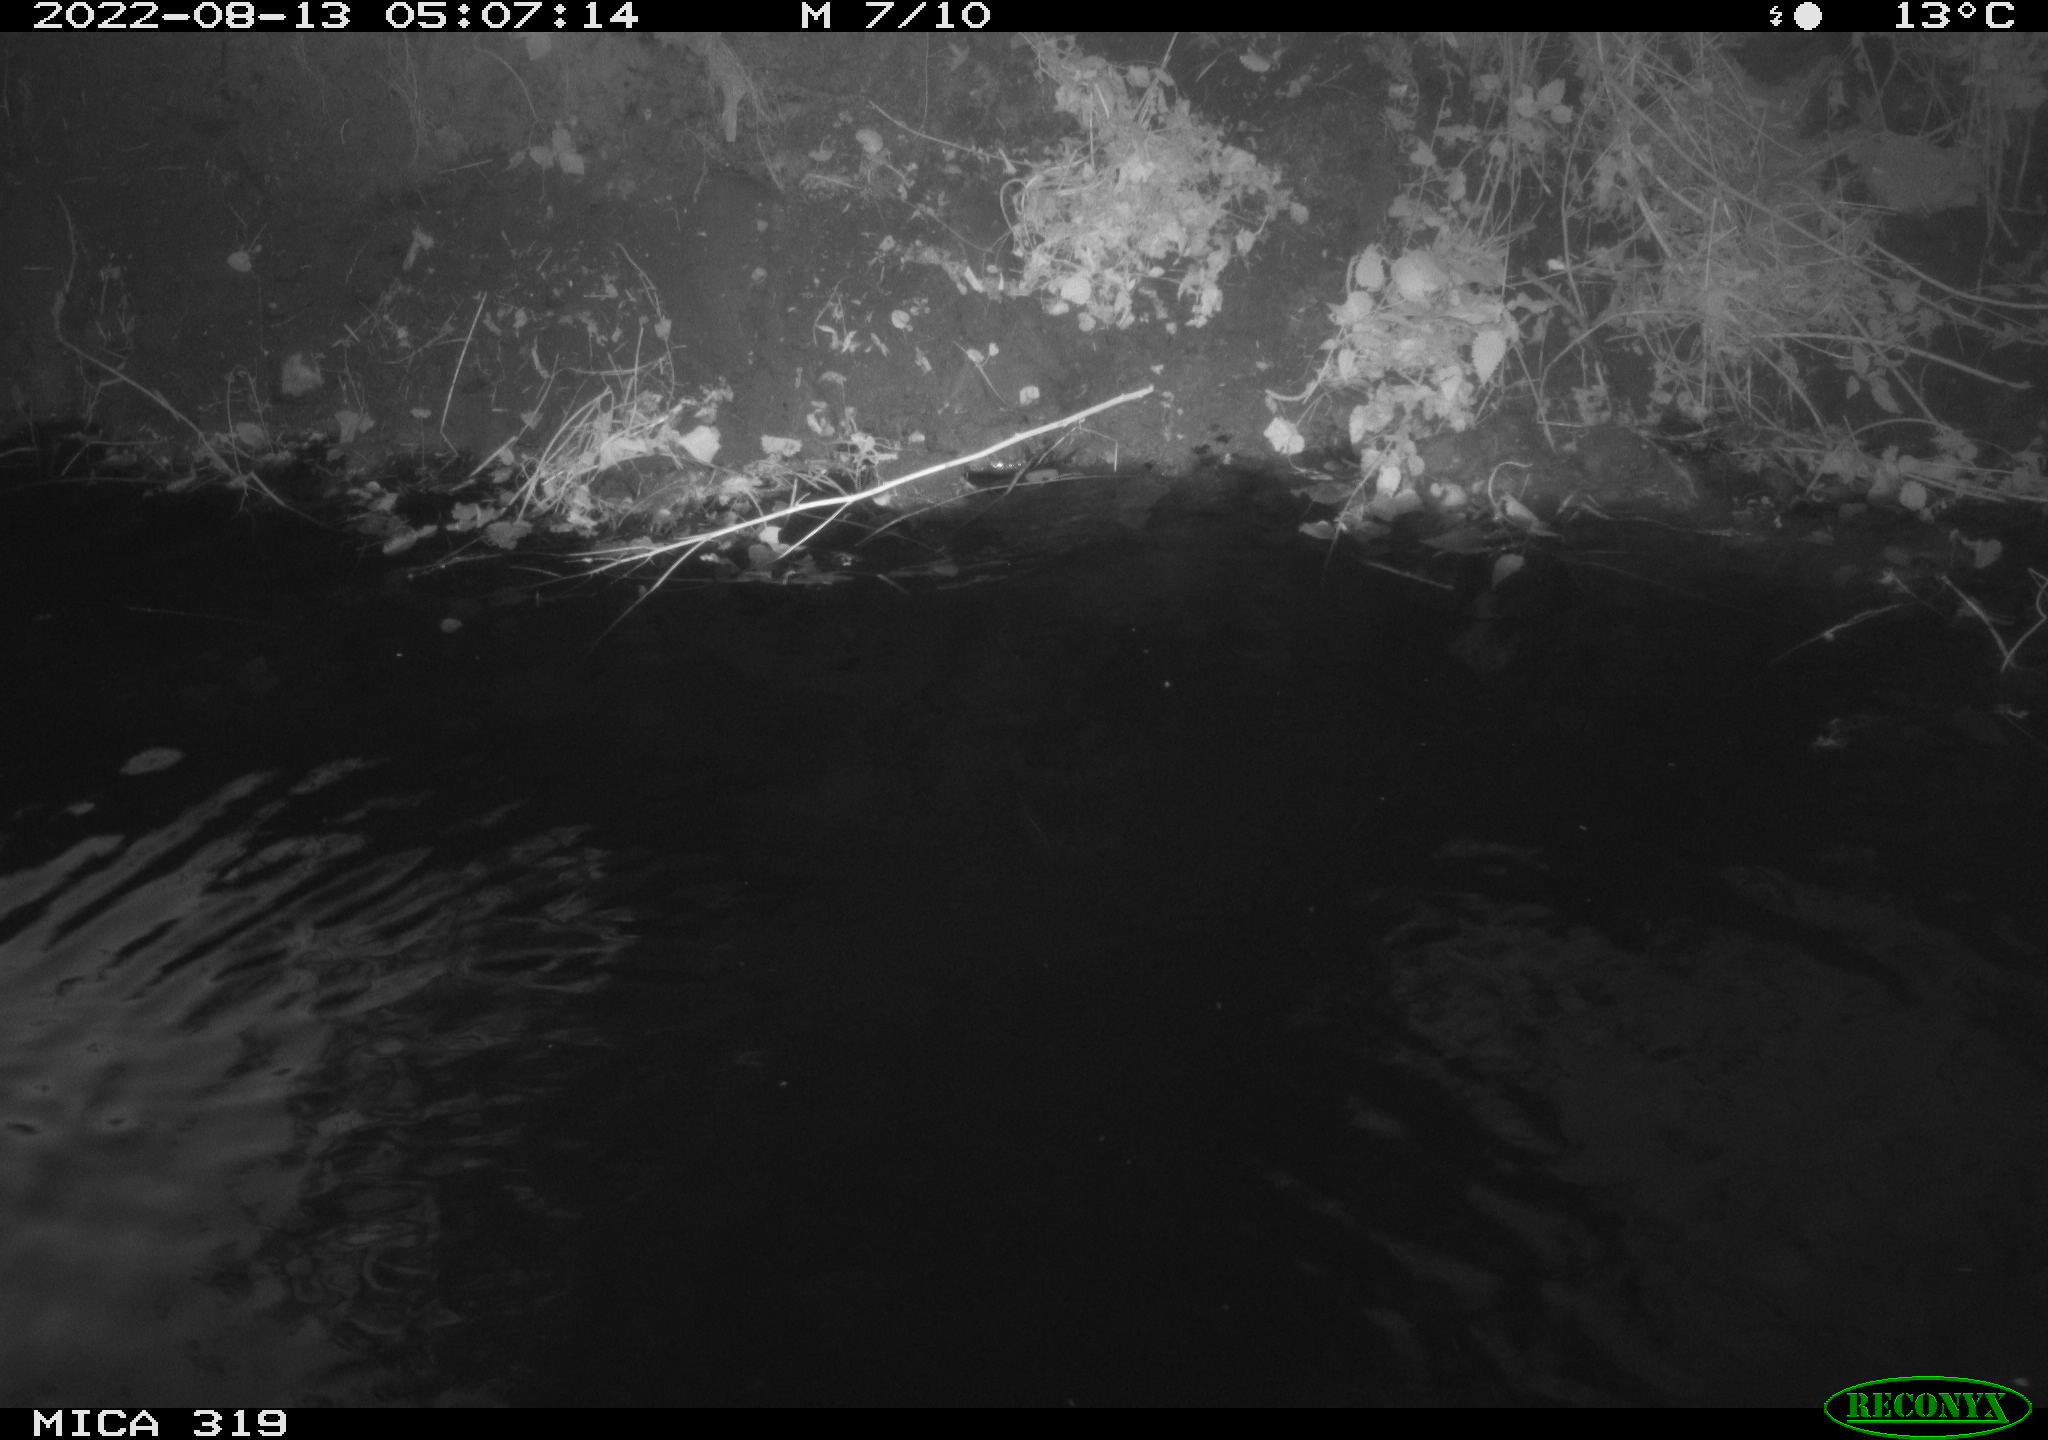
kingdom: Animalia
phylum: Chordata
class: Aves
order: Anseriformes
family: Anatidae
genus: Anas
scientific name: Anas
